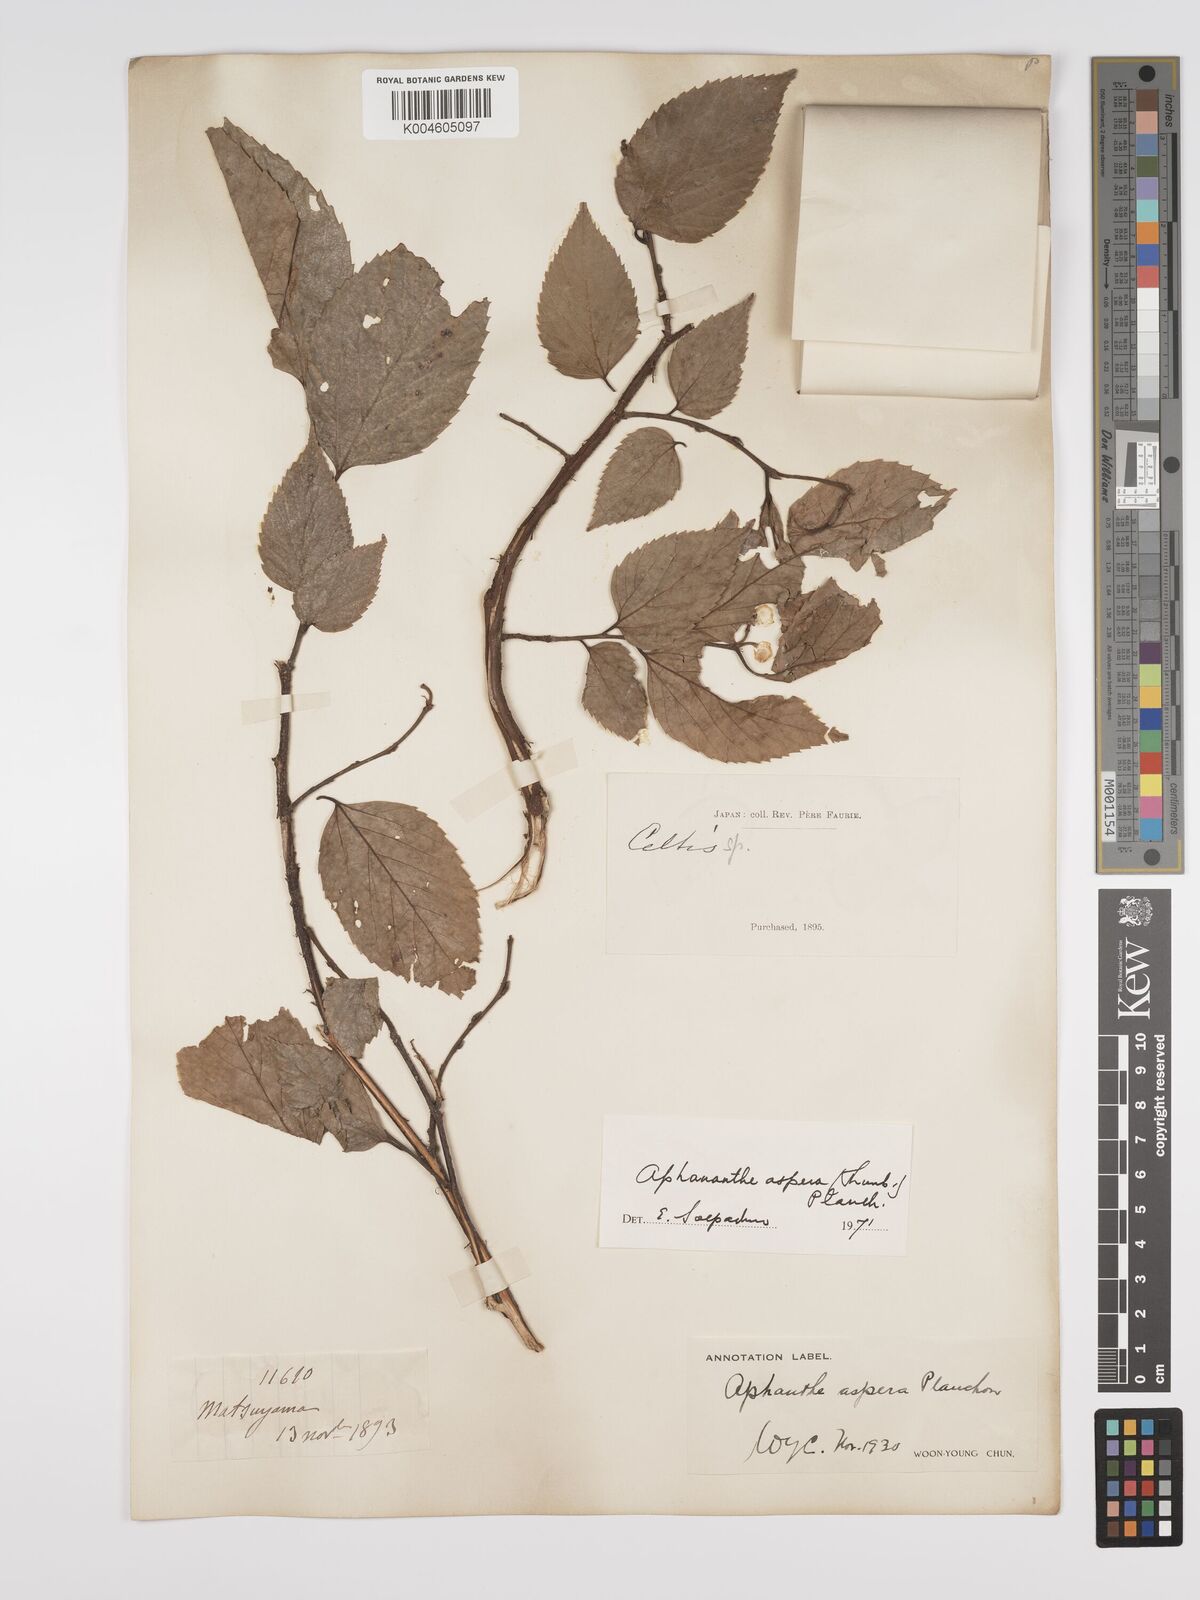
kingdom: Plantae
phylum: Tracheophyta
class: Magnoliopsida
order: Rosales
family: Cannabaceae
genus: Aphananthe
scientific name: Aphananthe aspera
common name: Mukutree
